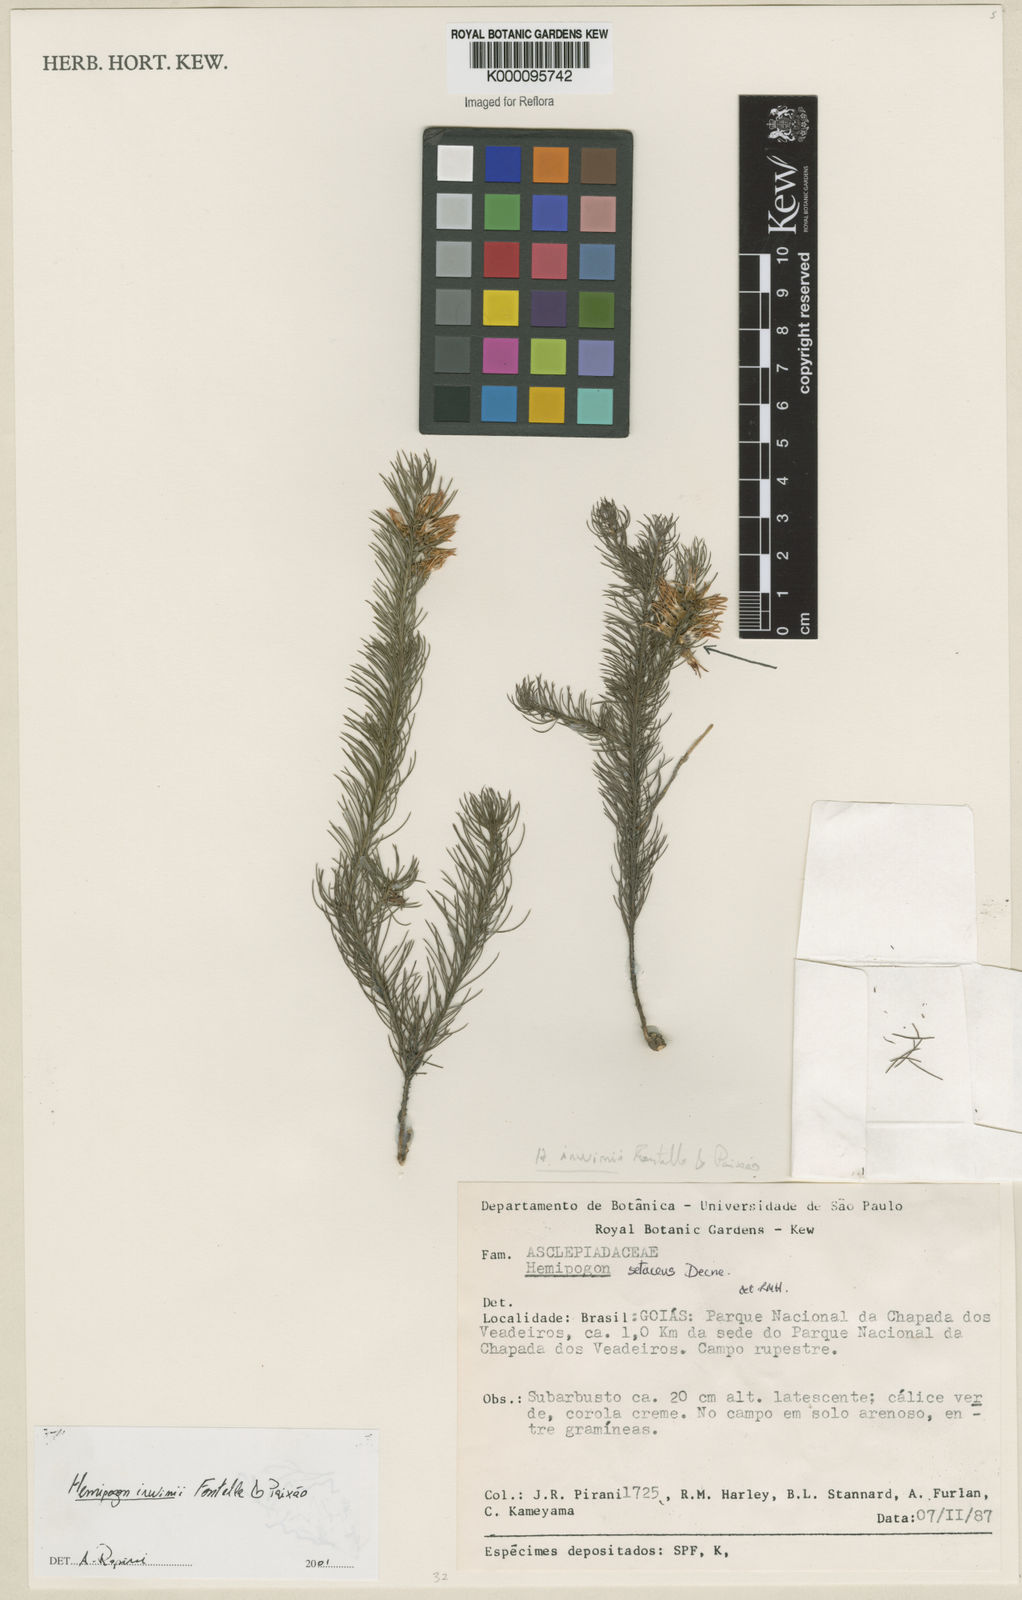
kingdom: Plantae
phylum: Tracheophyta
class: Magnoliopsida
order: Gentianales
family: Apocynaceae
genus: Hemipogon
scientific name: Hemipogon
